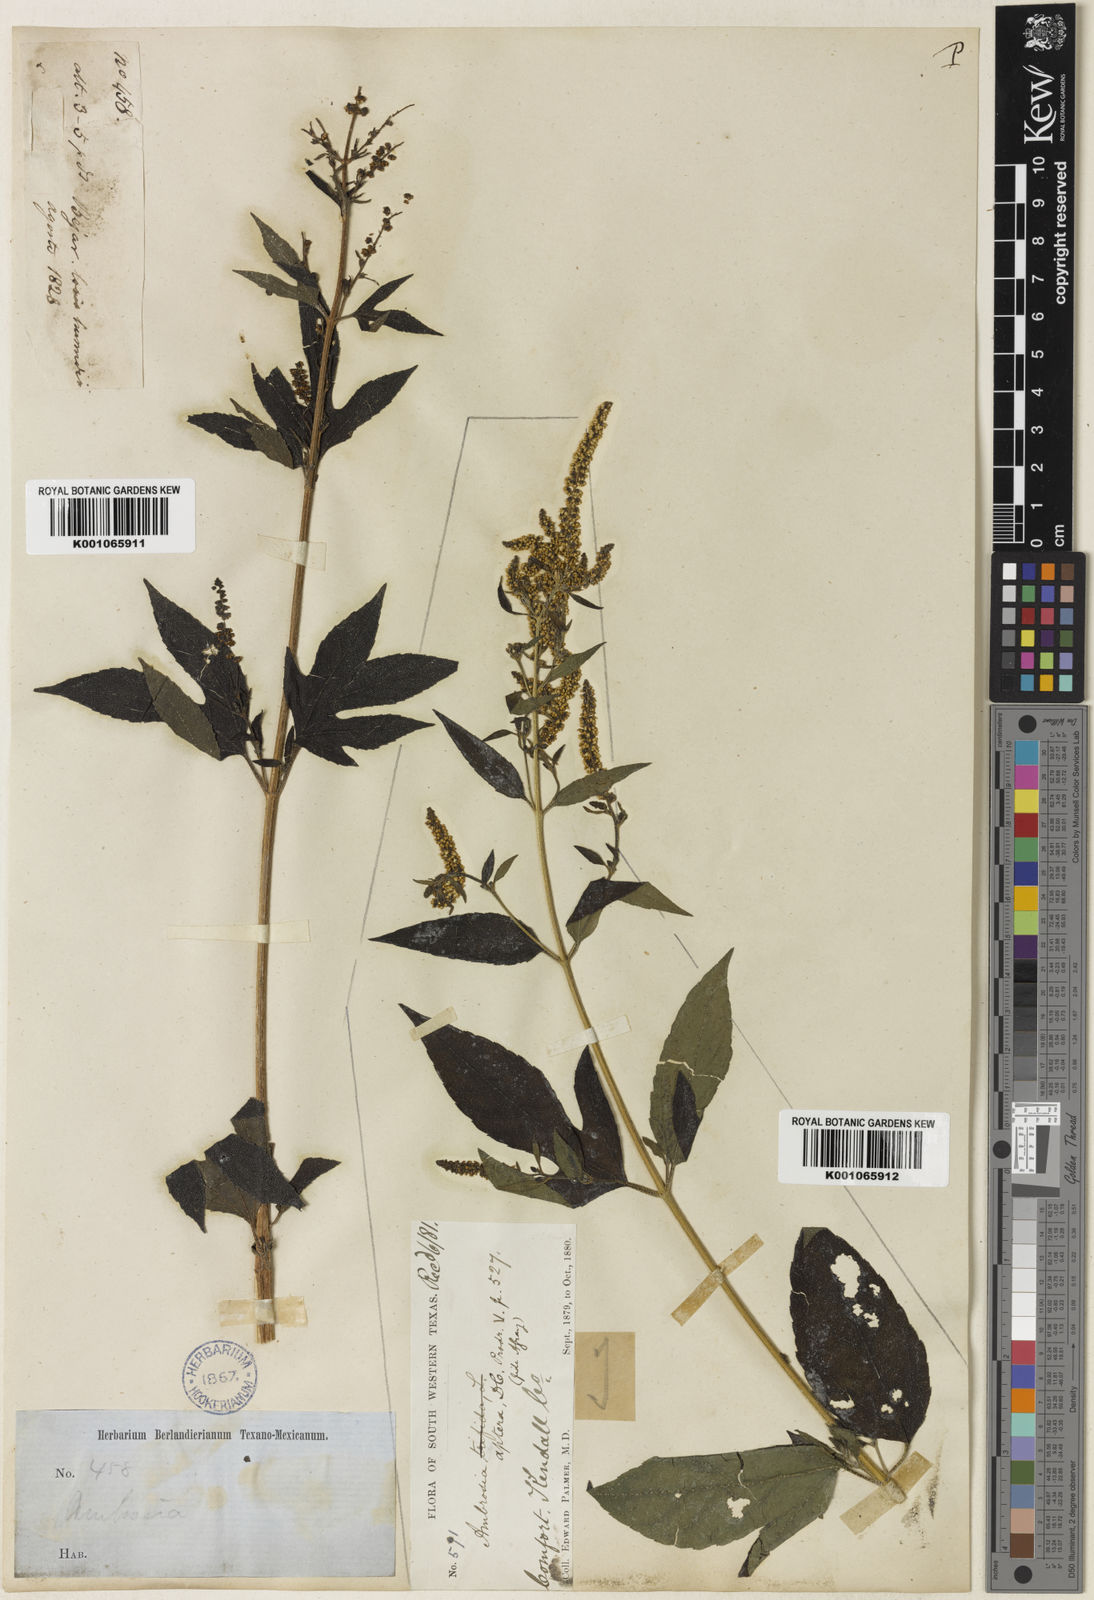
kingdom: Plantae
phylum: Tracheophyta
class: Magnoliopsida
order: Asterales
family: Asteraceae
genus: Ambrosia
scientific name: Ambrosia trifida
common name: Giant ragweed
